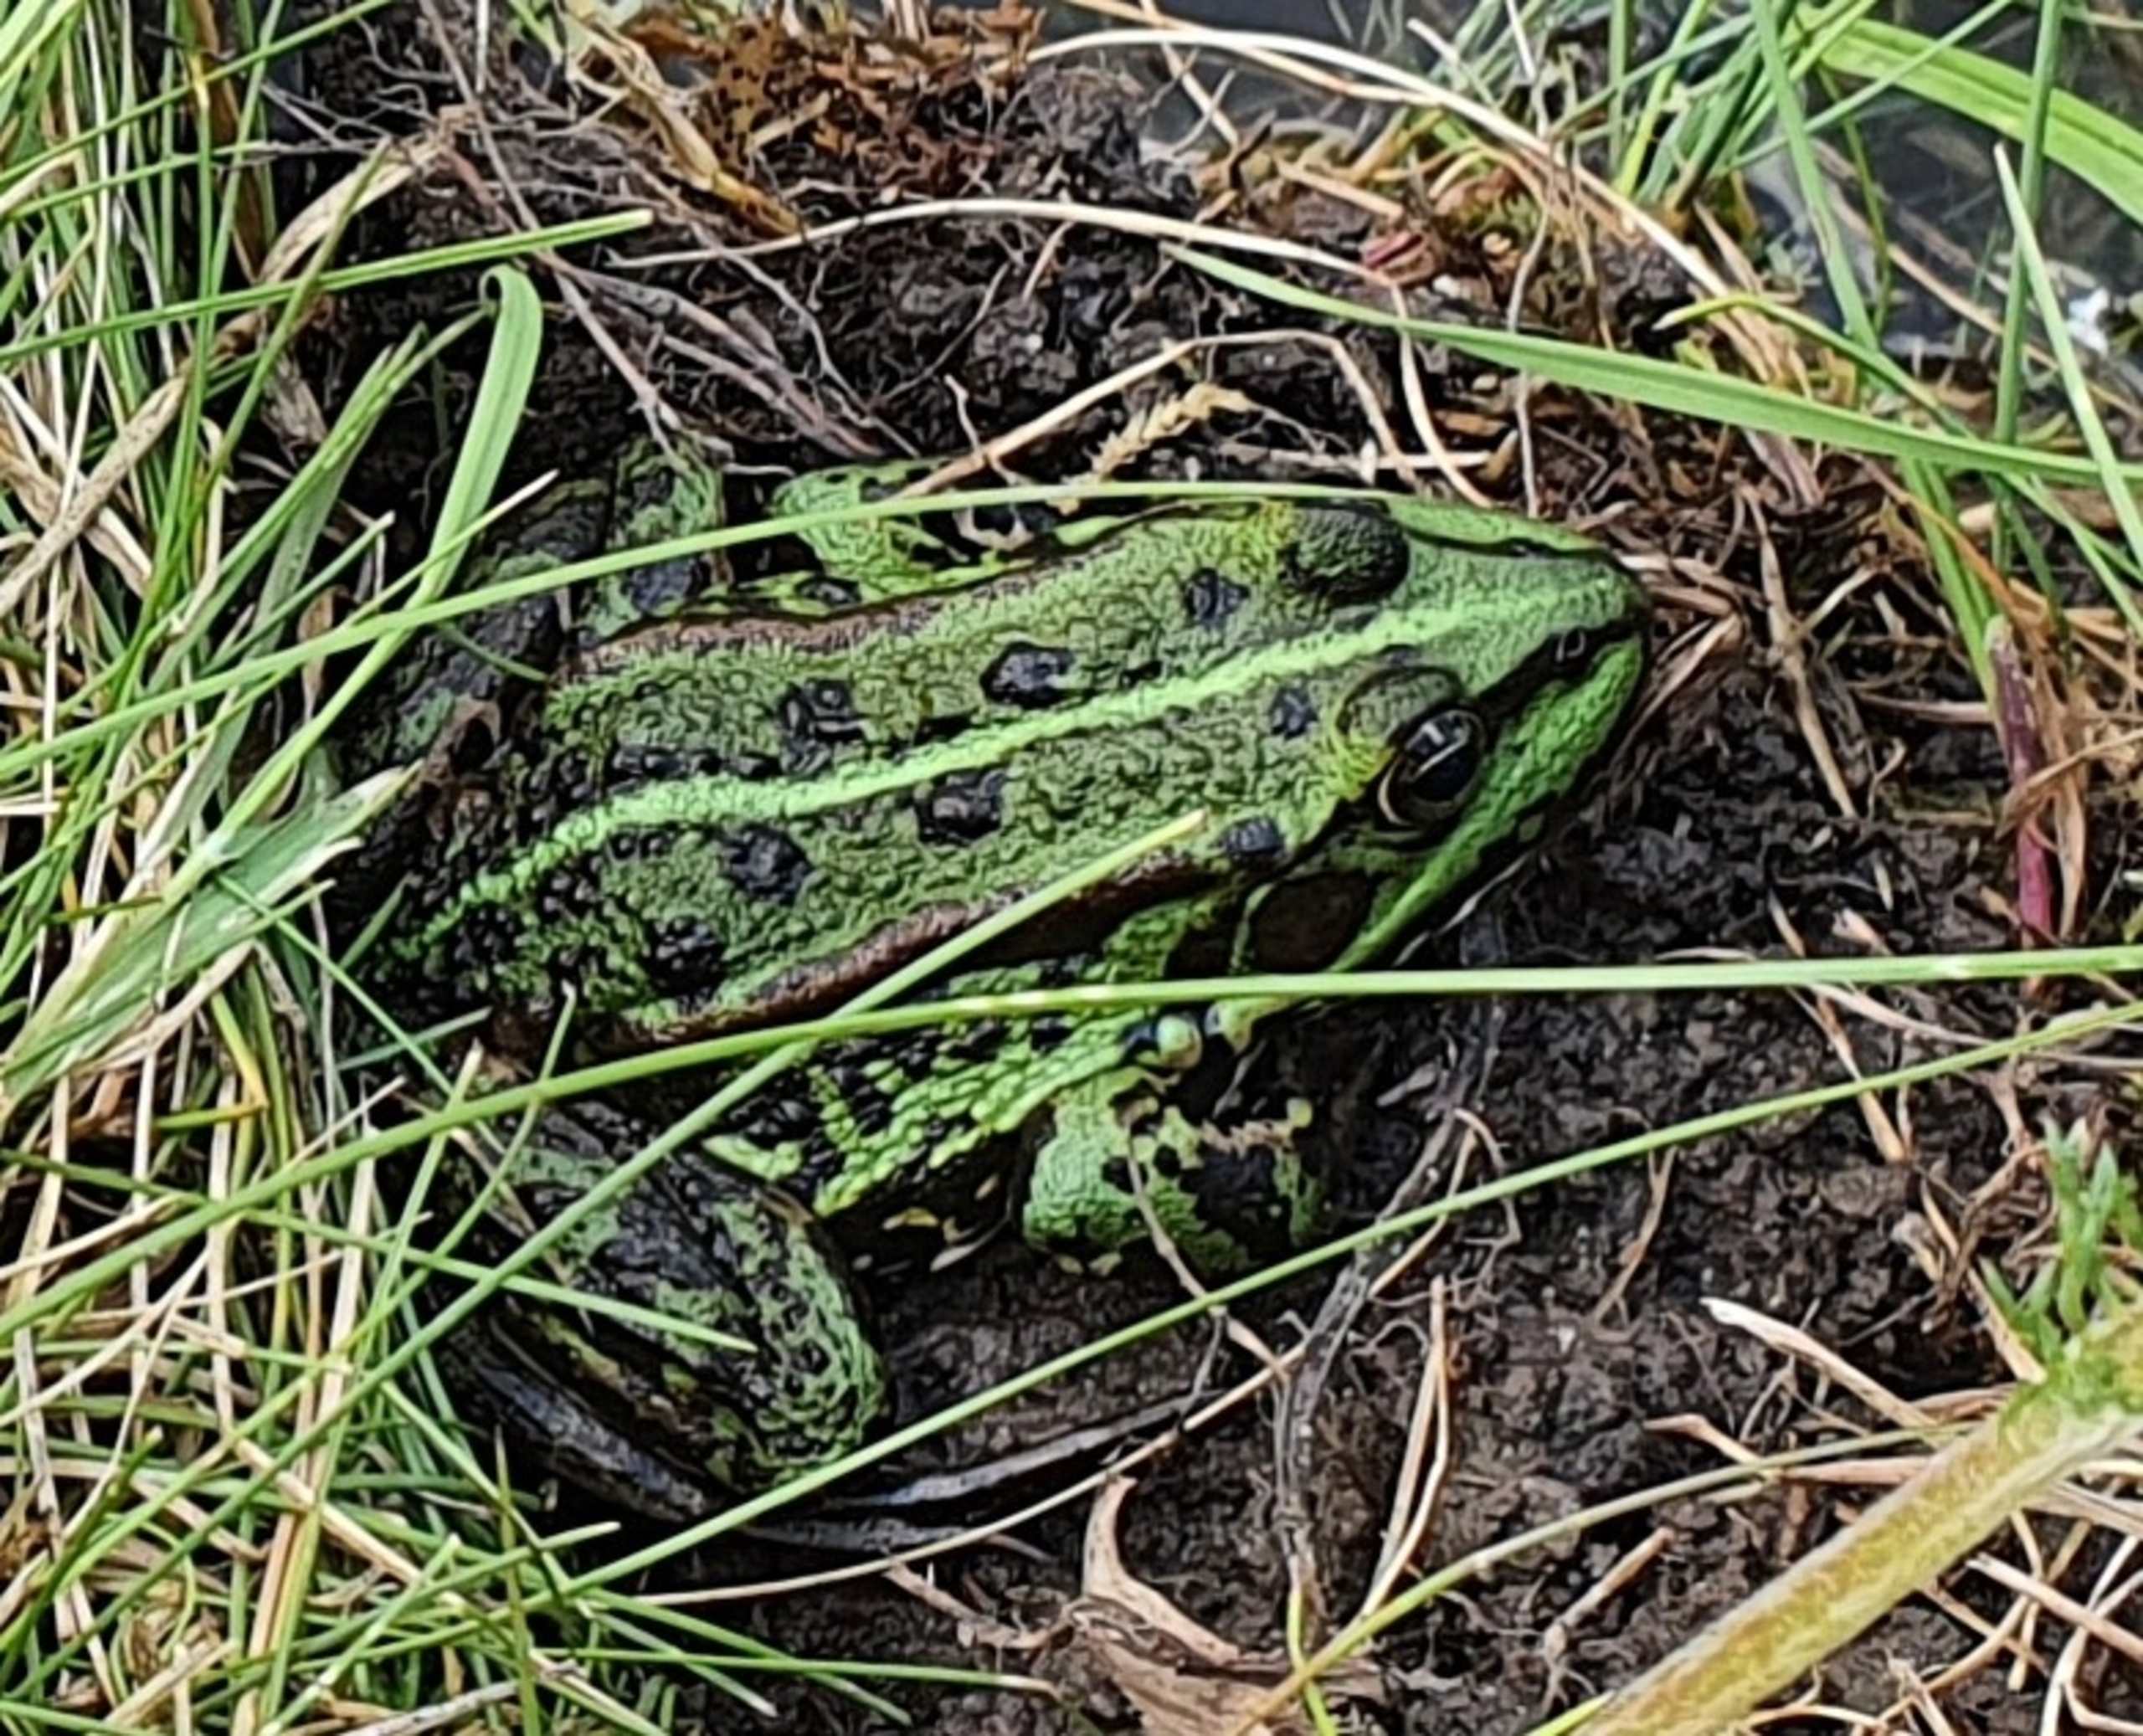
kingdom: Animalia
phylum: Chordata
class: Amphibia
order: Anura
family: Ranidae
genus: Pelophylax
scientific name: Pelophylax lessonae
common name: Grøn frø
